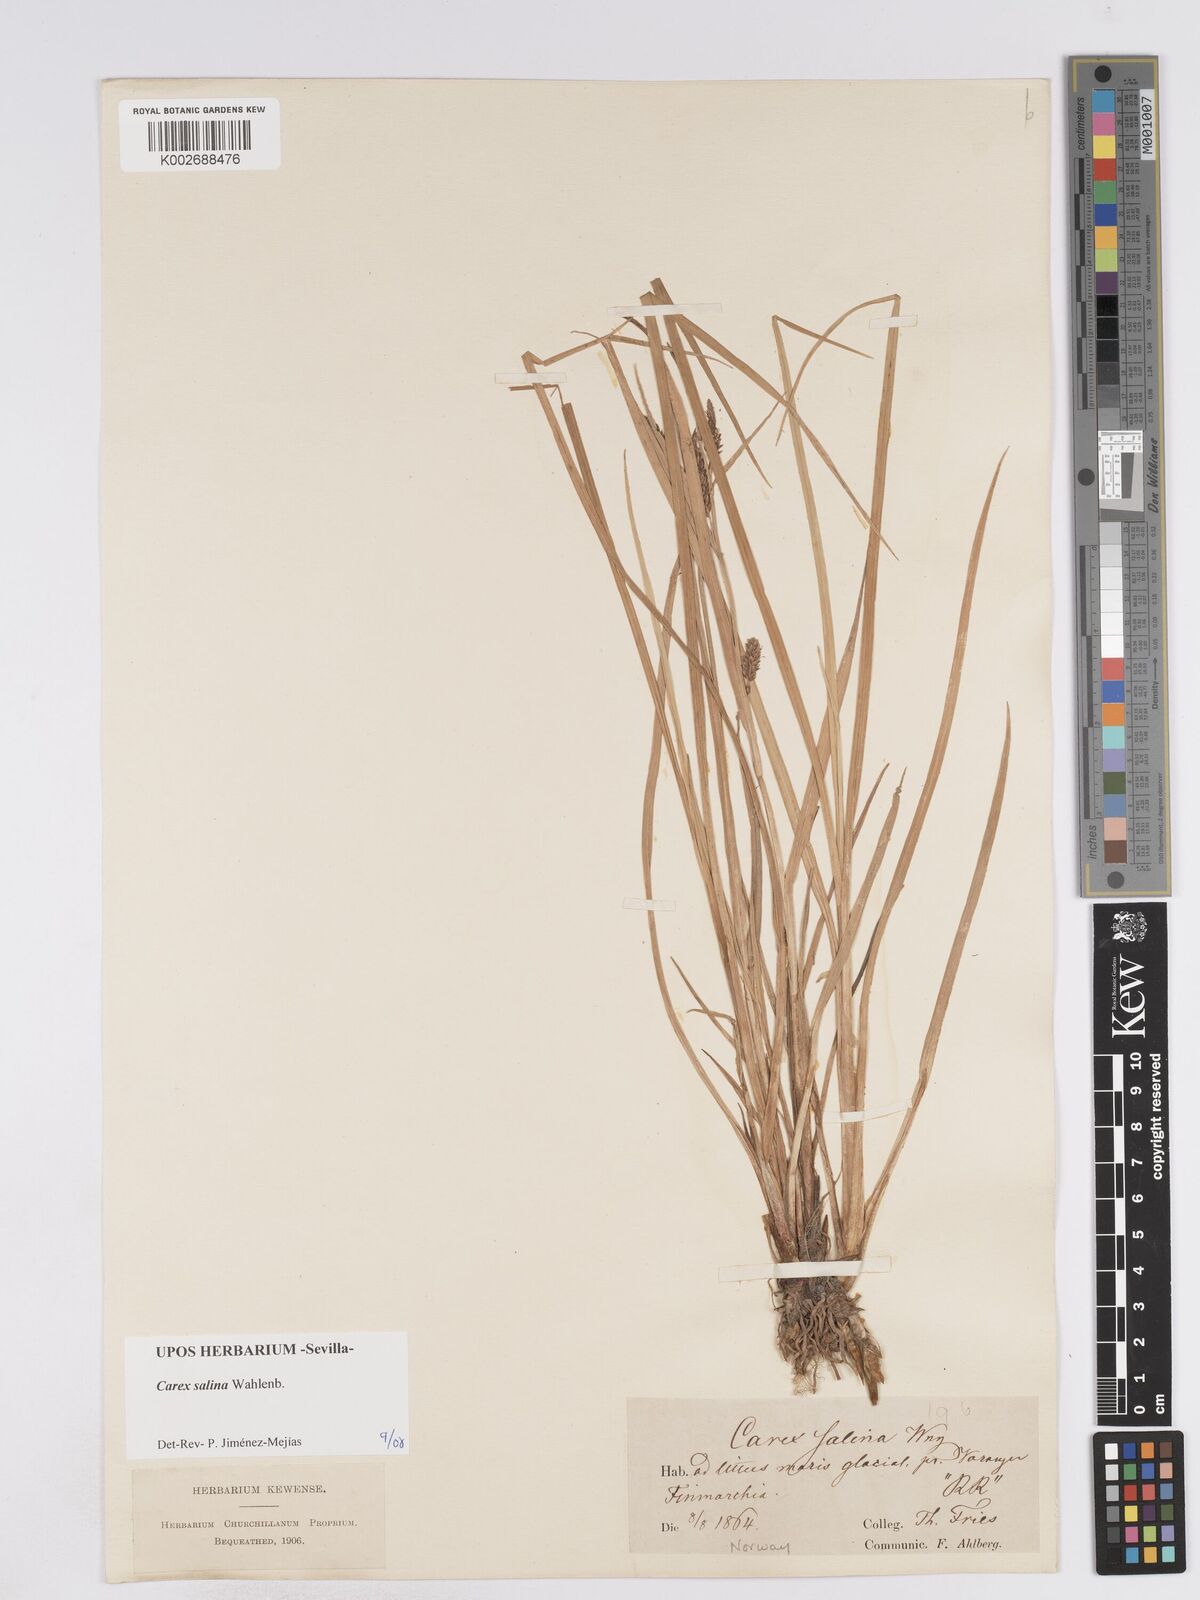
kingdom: Plantae
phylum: Tracheophyta
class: Liliopsida
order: Poales
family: Cyperaceae
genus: Carex
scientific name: Carex salina
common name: Saltmarsh sedge
